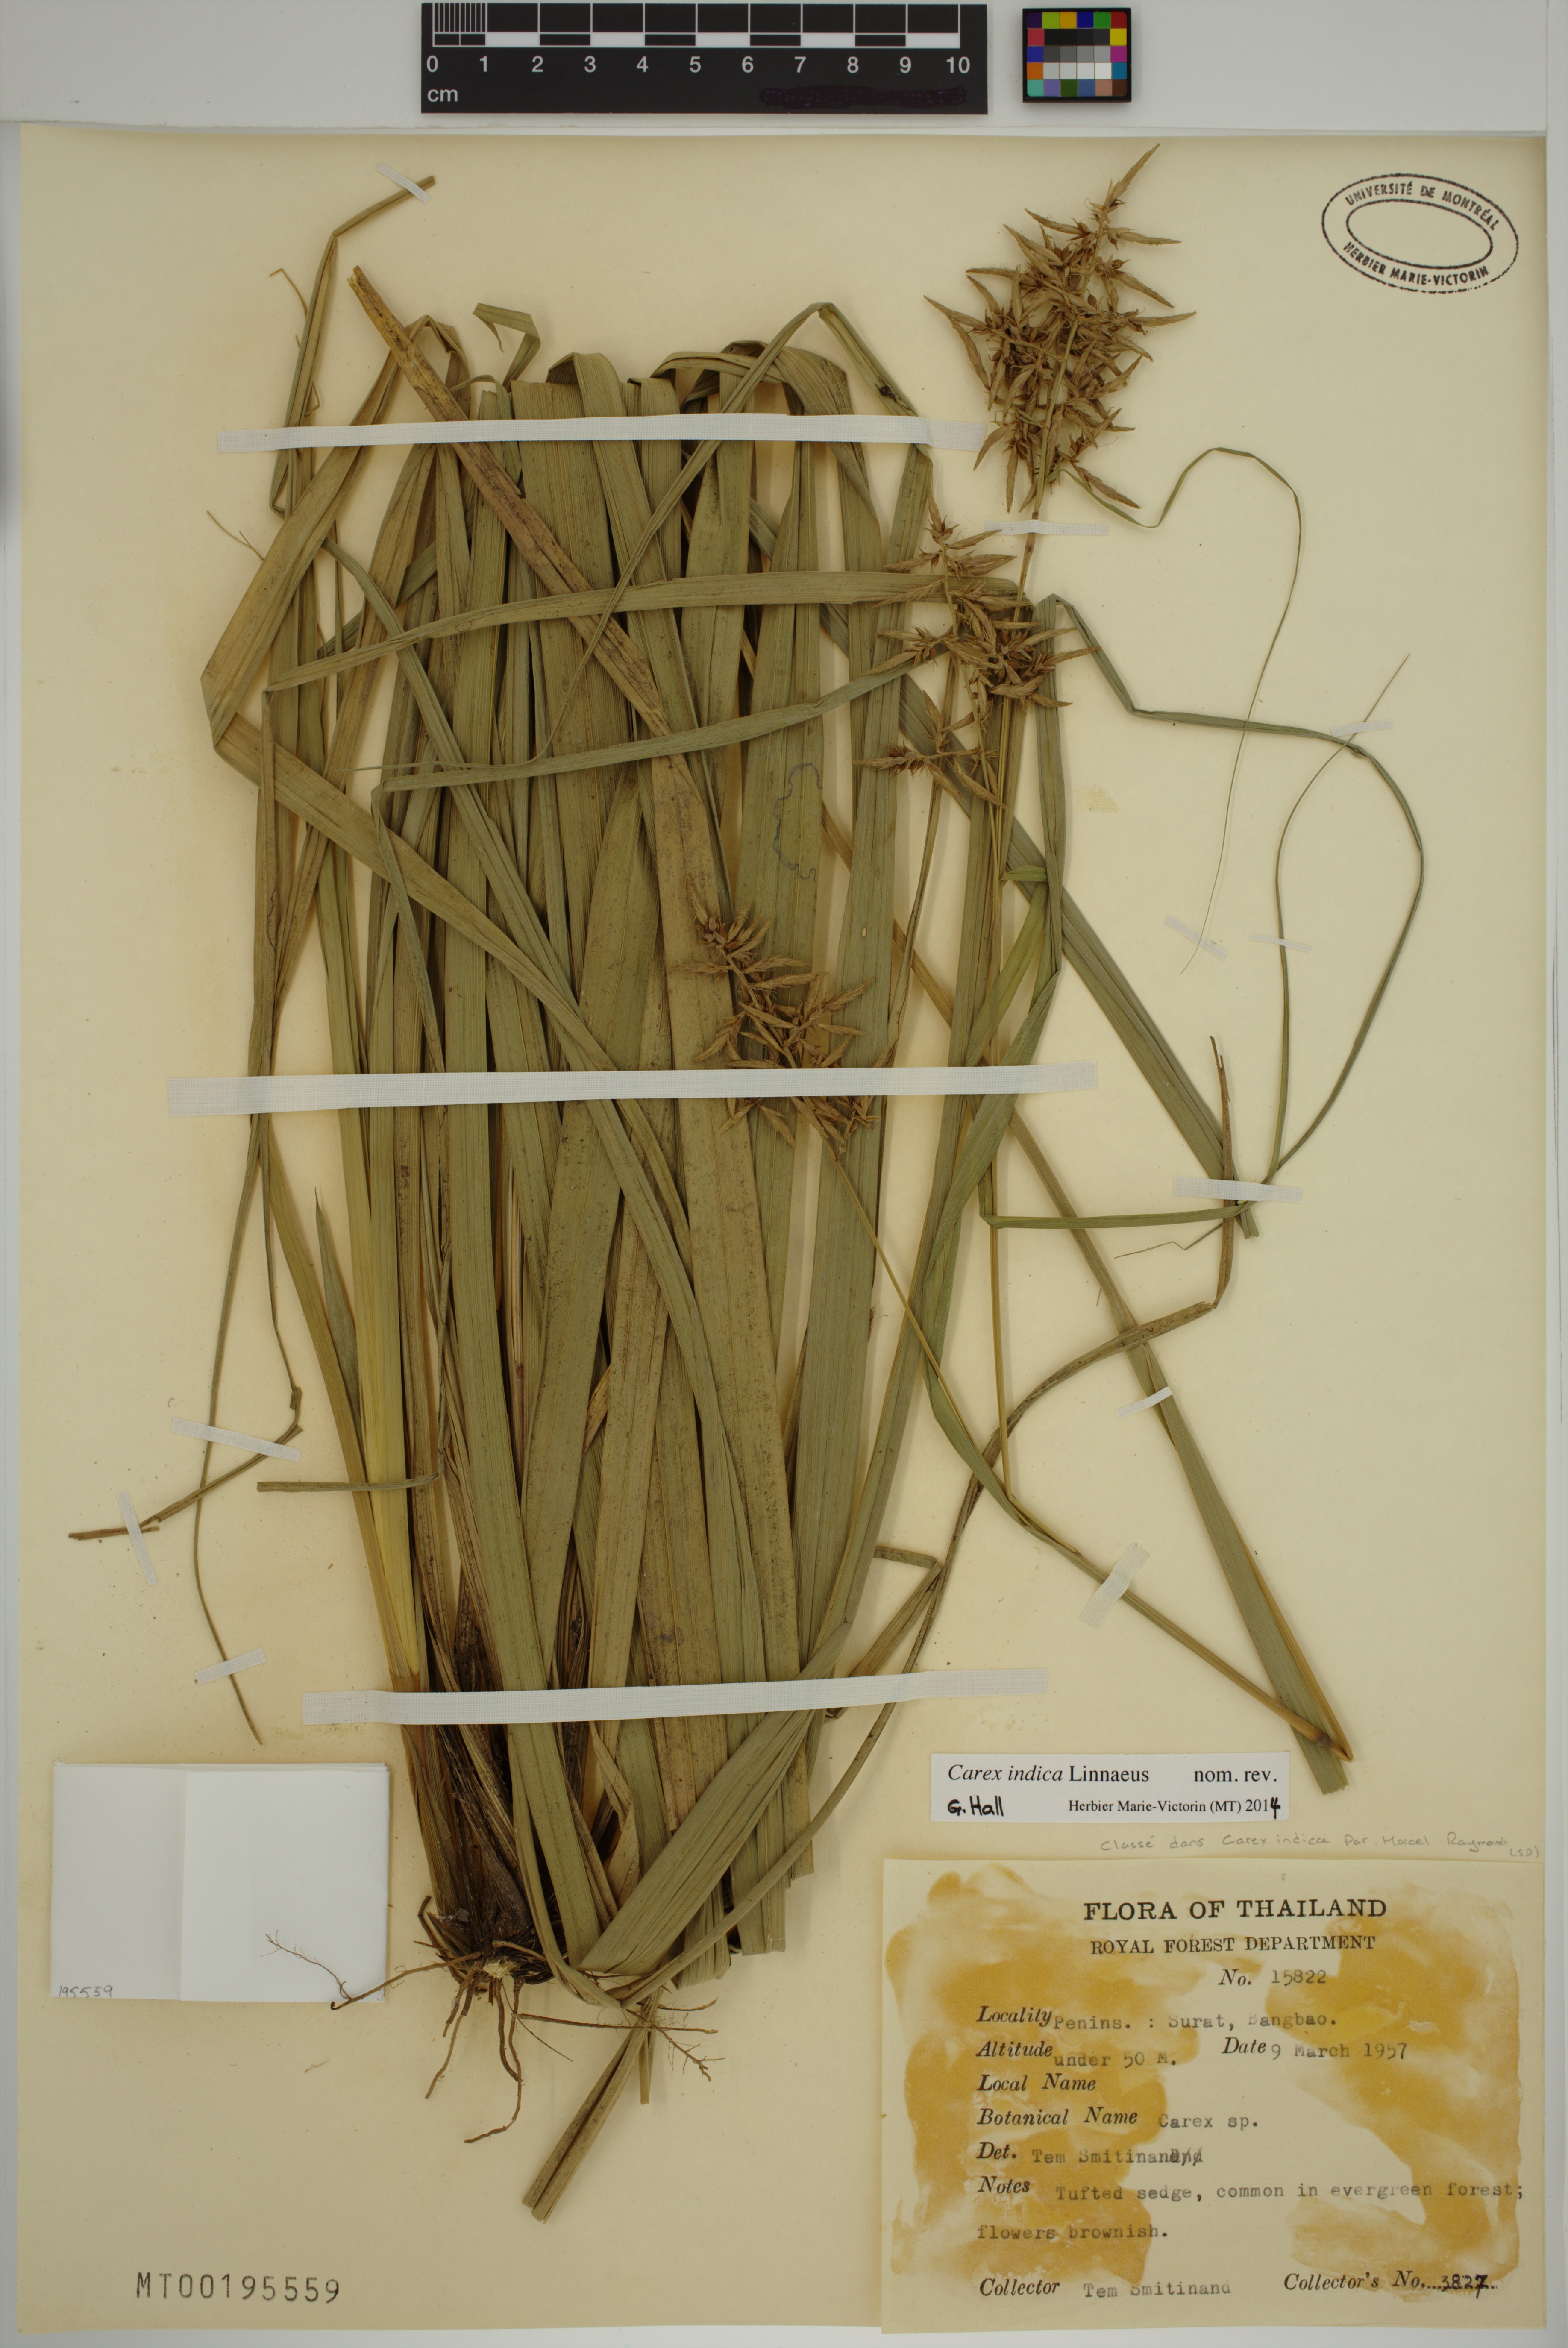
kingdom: Plantae
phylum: Tracheophyta
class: Liliopsida
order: Poales
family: Cyperaceae
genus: Carex
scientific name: Carex indica
